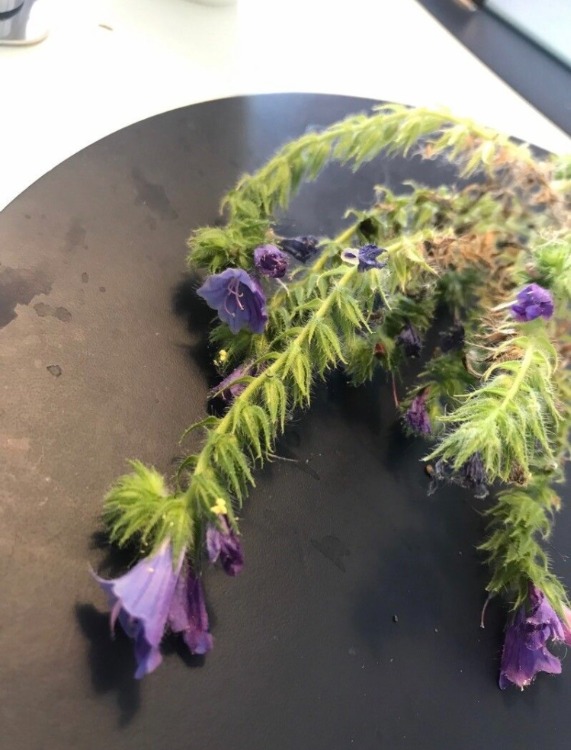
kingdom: Plantae
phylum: Tracheophyta
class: Magnoliopsida
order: Boraginales
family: Boraginaceae
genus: Echium
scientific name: Echium vulgare
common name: Slangehoved
